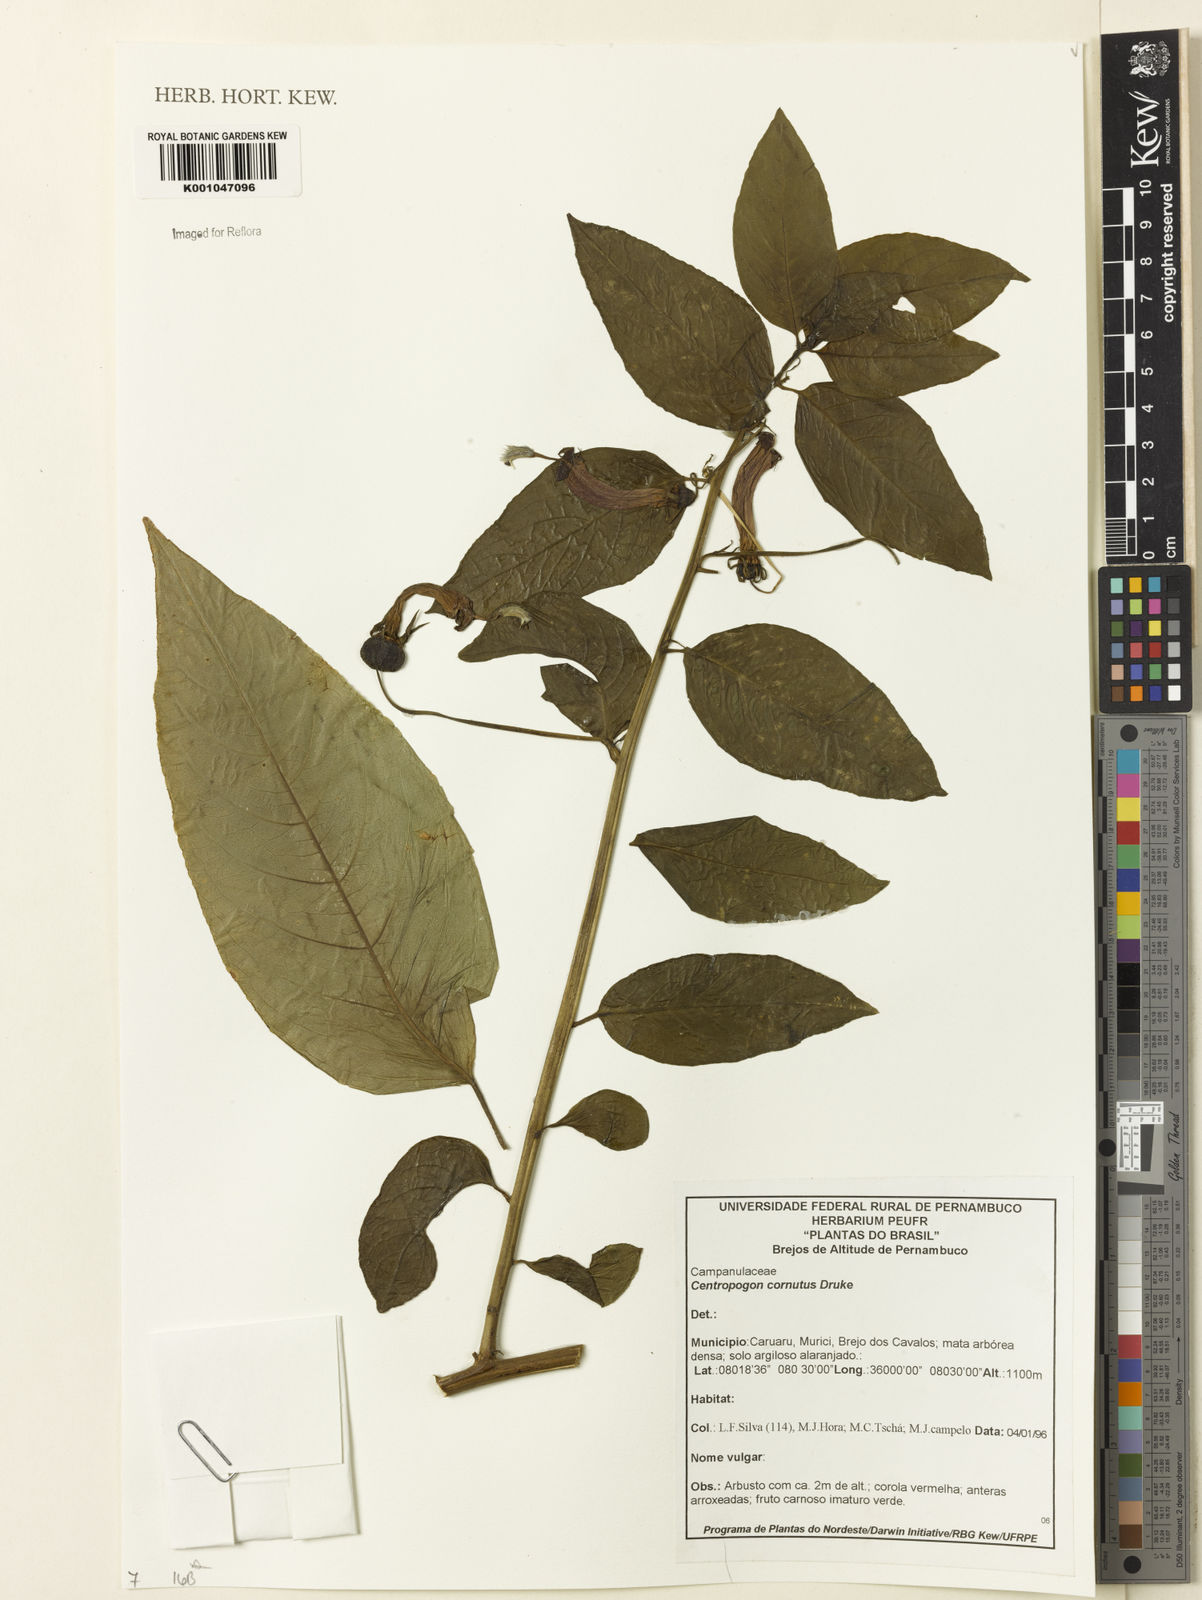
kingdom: Plantae
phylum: Tracheophyta
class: Magnoliopsida
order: Asterales
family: Campanulaceae
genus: Centropogon
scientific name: Centropogon cornutus
